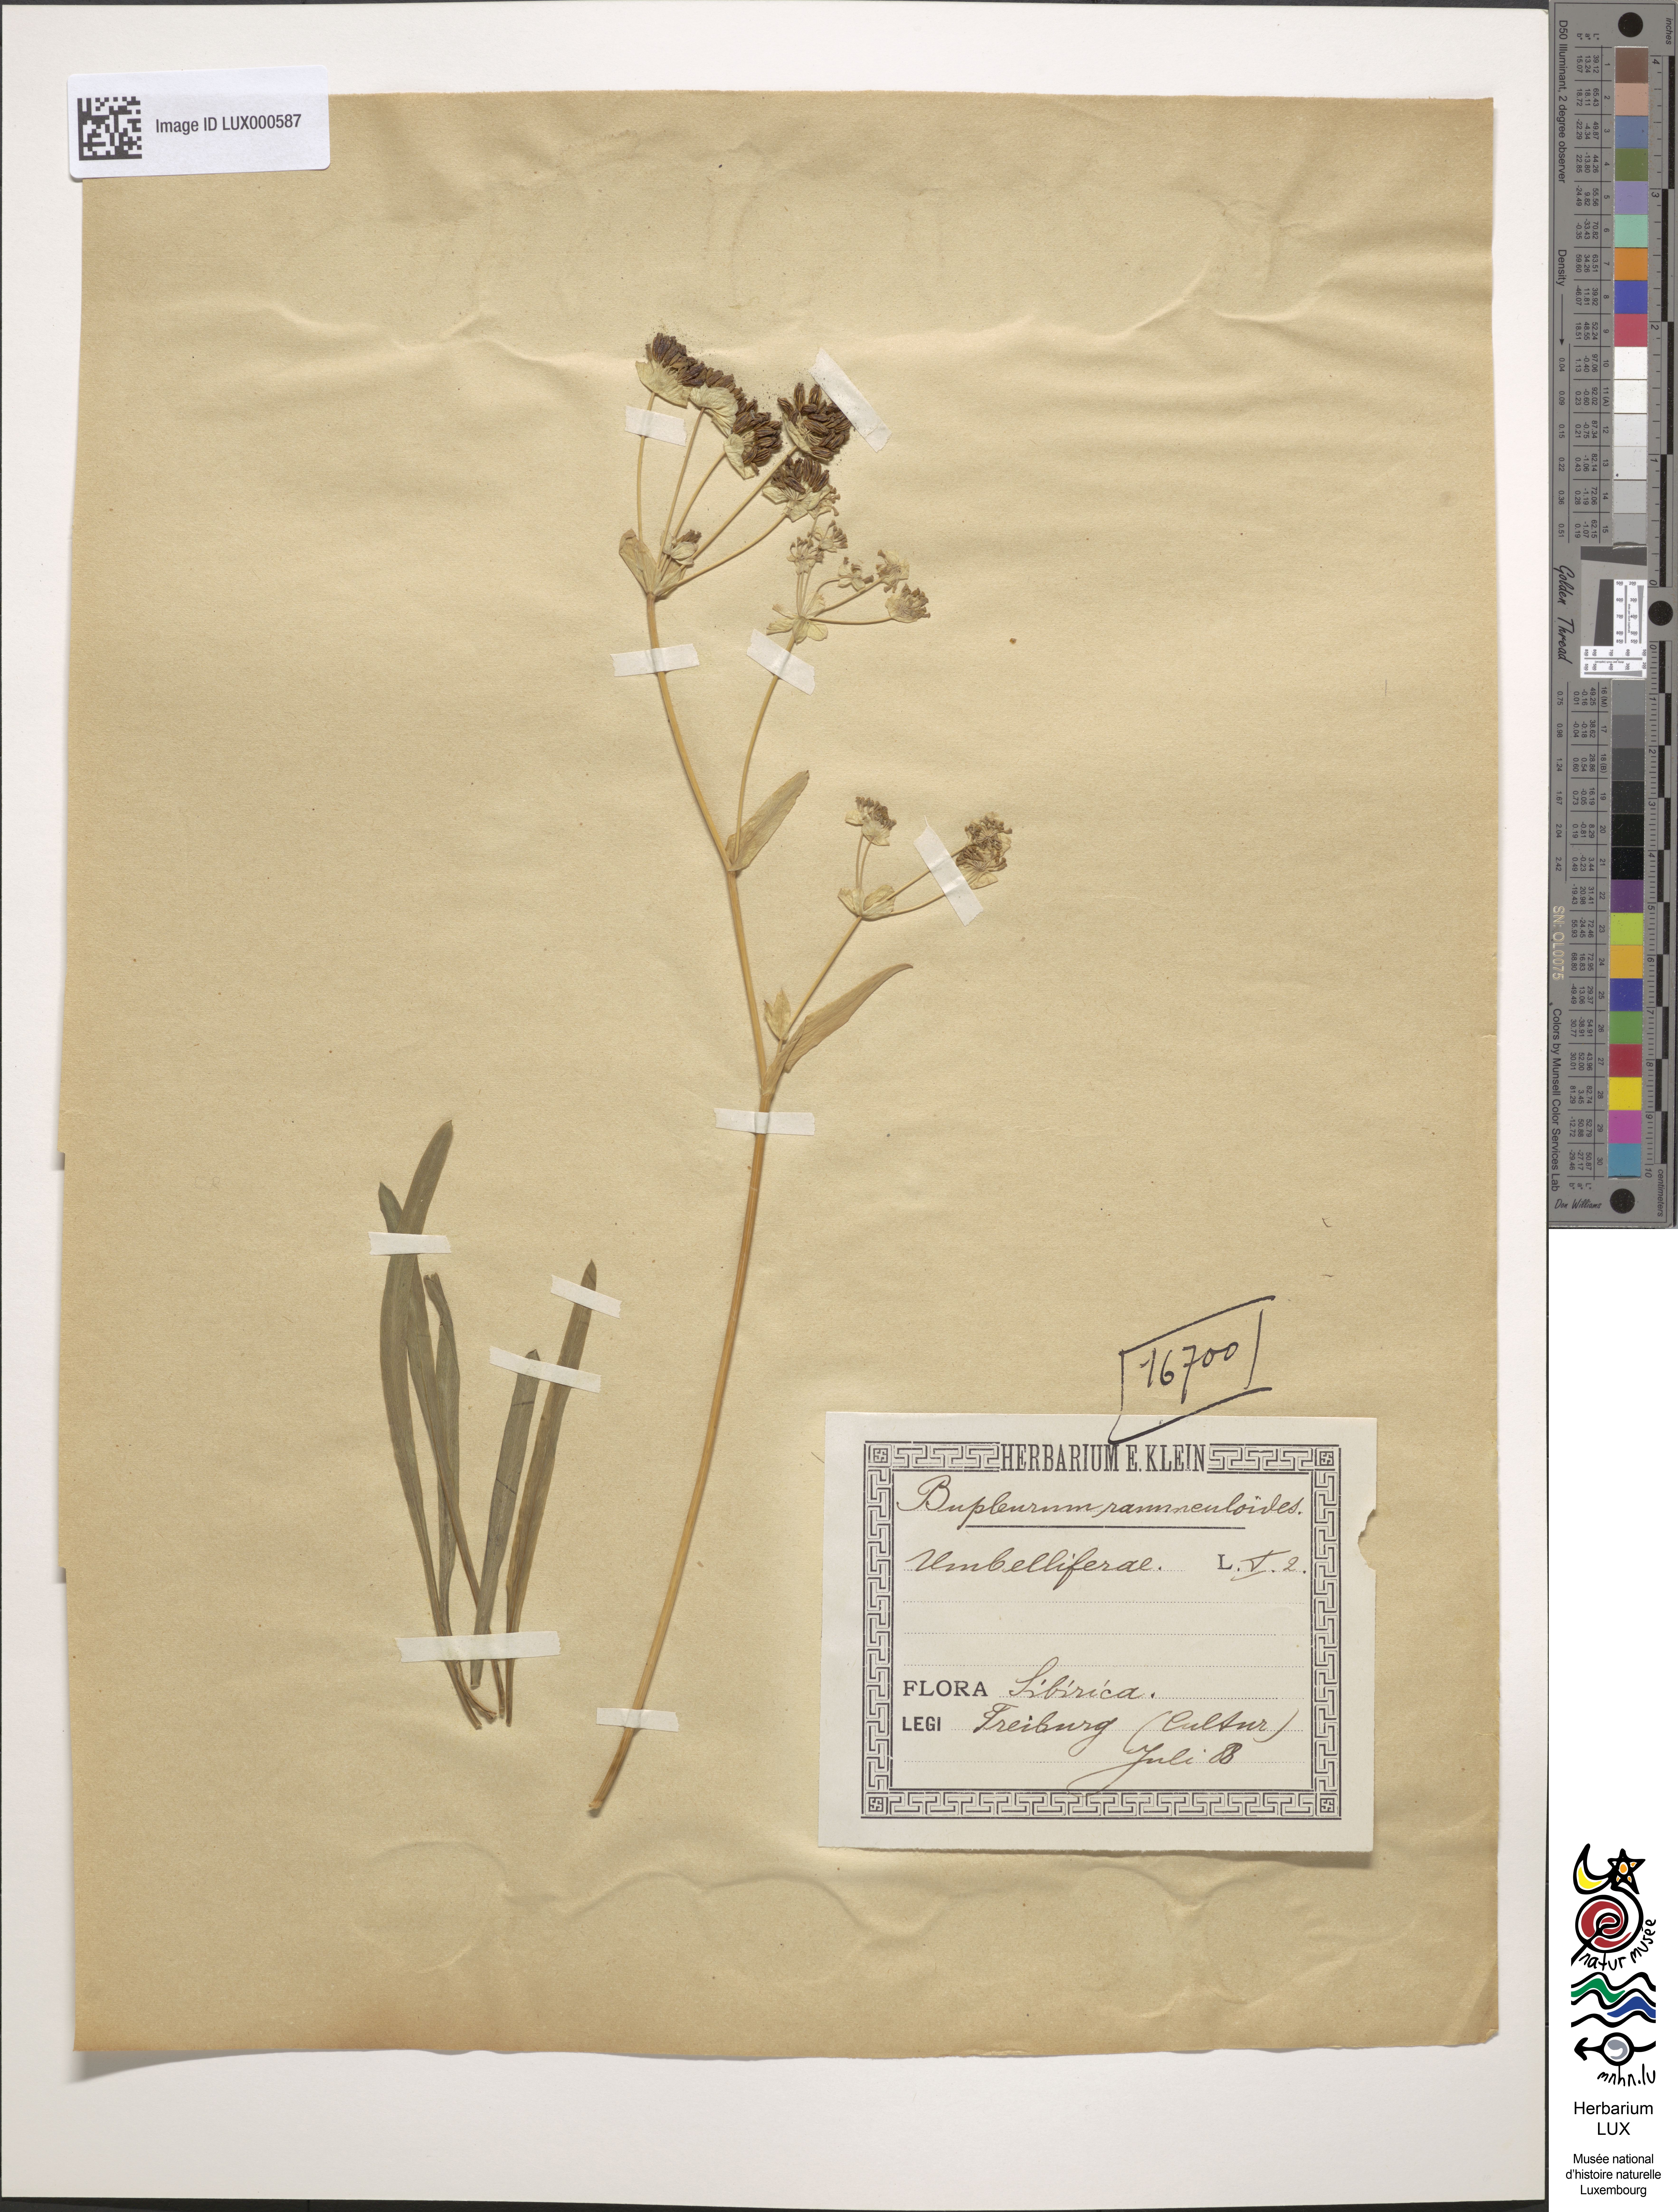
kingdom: Plantae
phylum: Tracheophyta
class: Magnoliopsida
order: Apiales
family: Apiaceae
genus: Bupleurum
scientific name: Bupleurum ranunculoides
